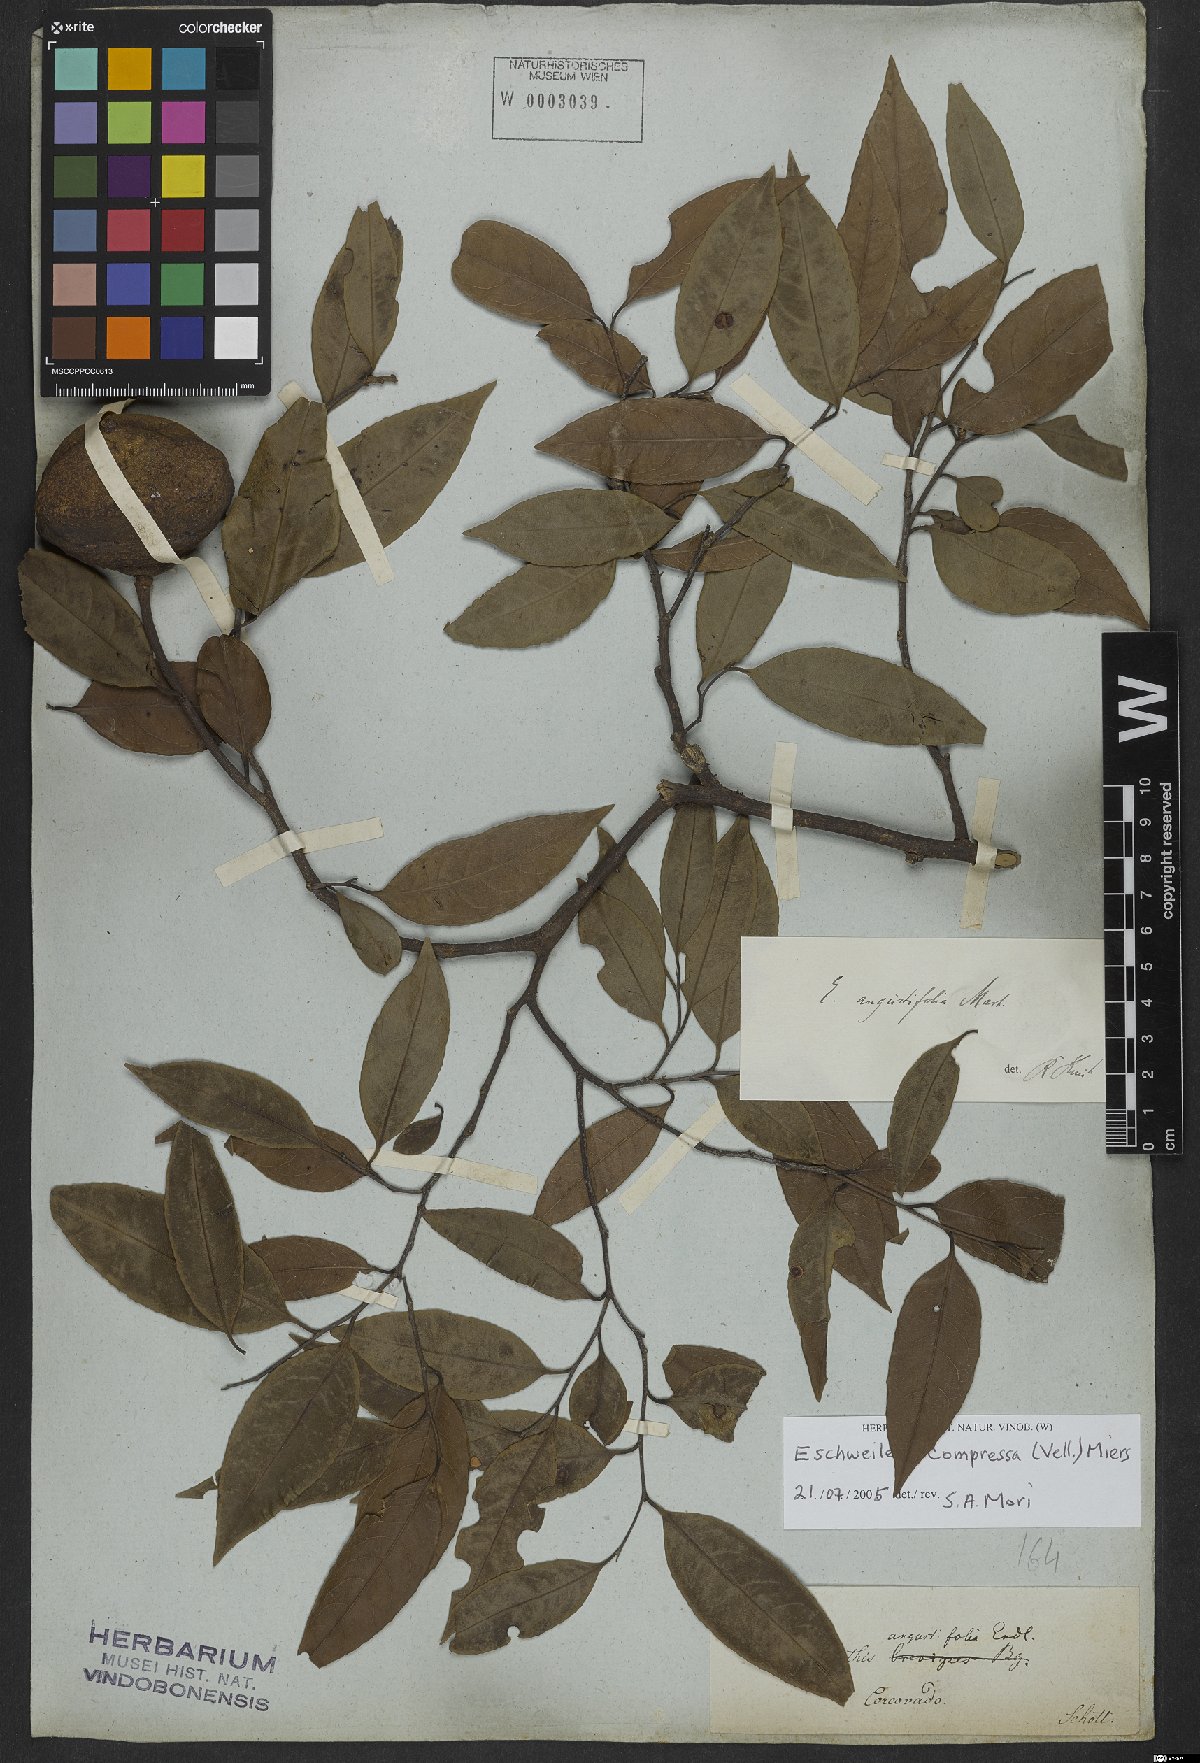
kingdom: Plantae
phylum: Tracheophyta
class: Magnoliopsida
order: Ericales
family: Lecythidaceae
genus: Eschweilera
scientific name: Eschweilera compressa
